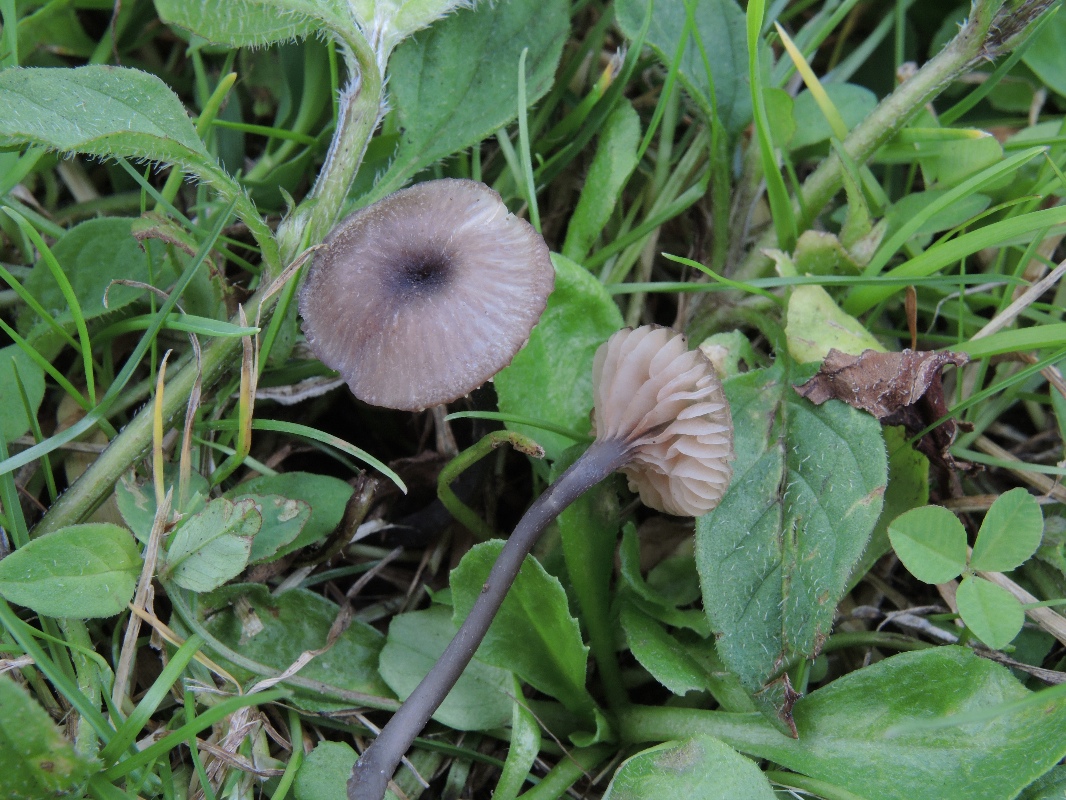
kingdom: Fungi
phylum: Basidiomycota
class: Agaricomycetes
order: Agaricales
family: Entolomataceae
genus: Entoloma
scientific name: Entoloma incarnatofuscescens
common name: tragt-rødblad
